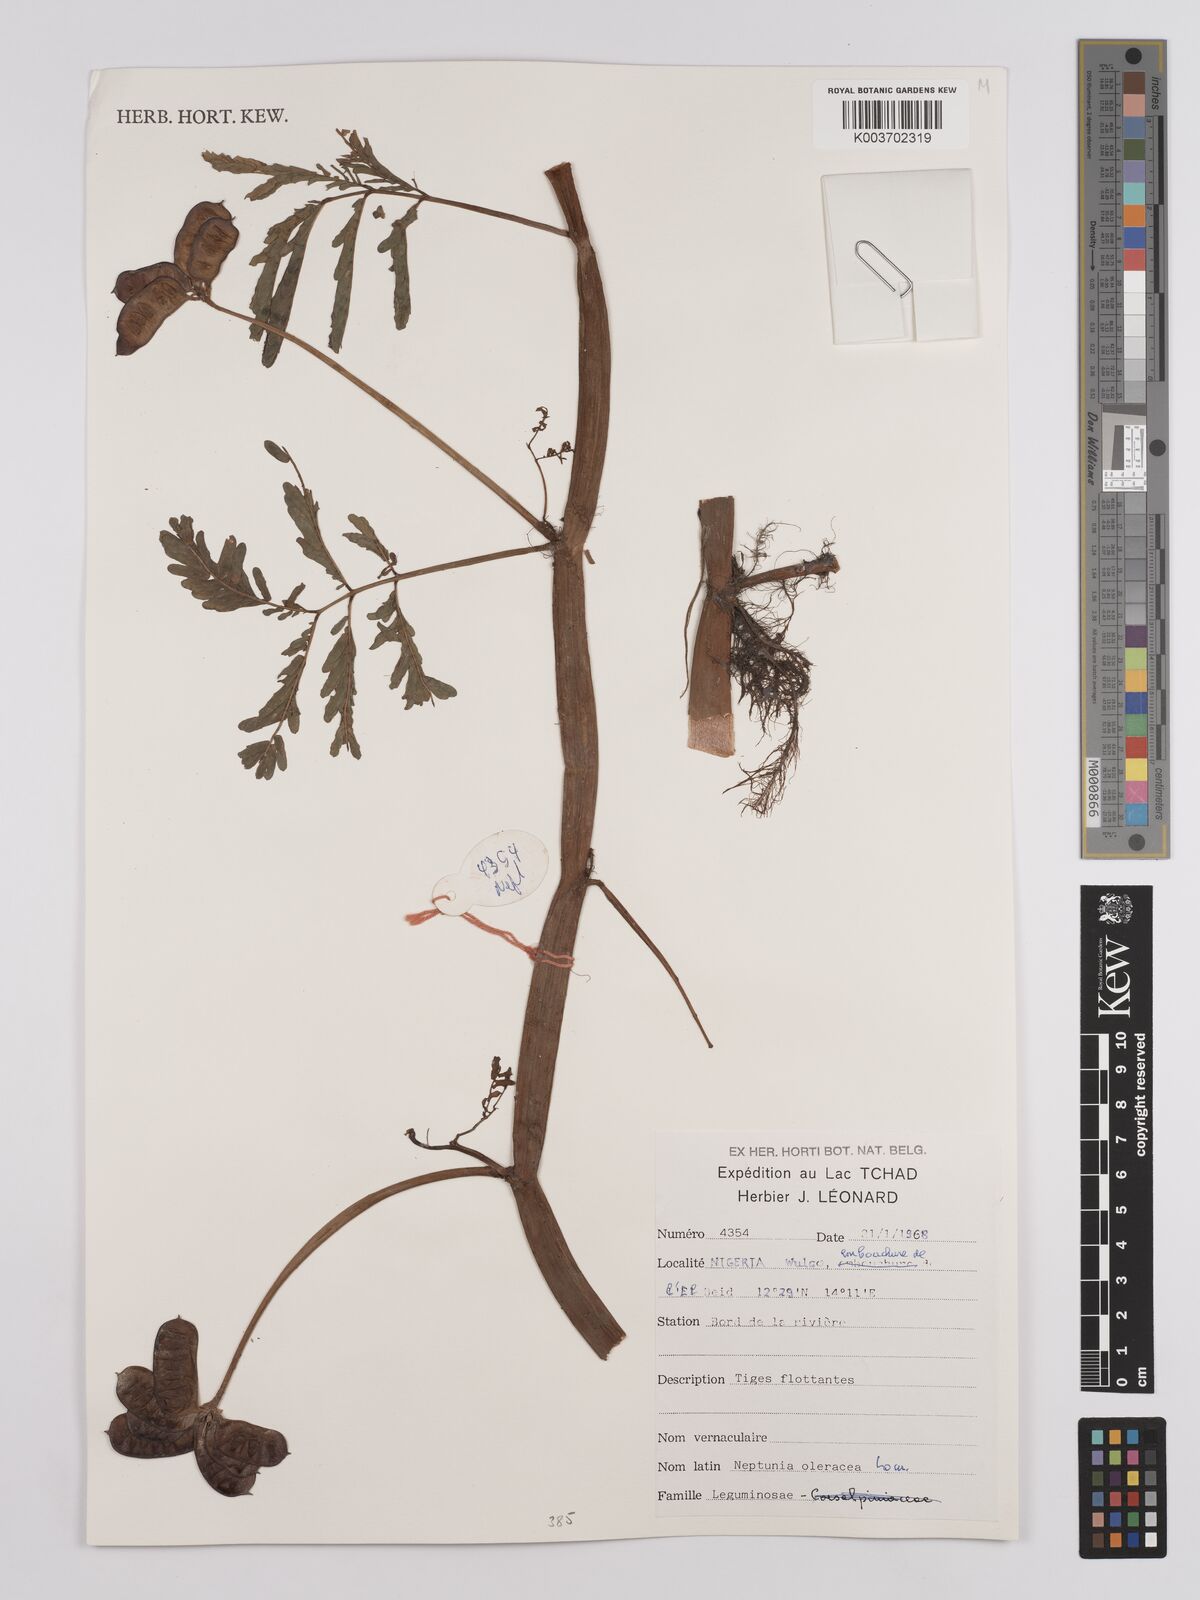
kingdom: Plantae
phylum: Tracheophyta
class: Magnoliopsida
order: Fabales
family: Fabaceae
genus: Neptunia
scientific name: Neptunia prostrata
